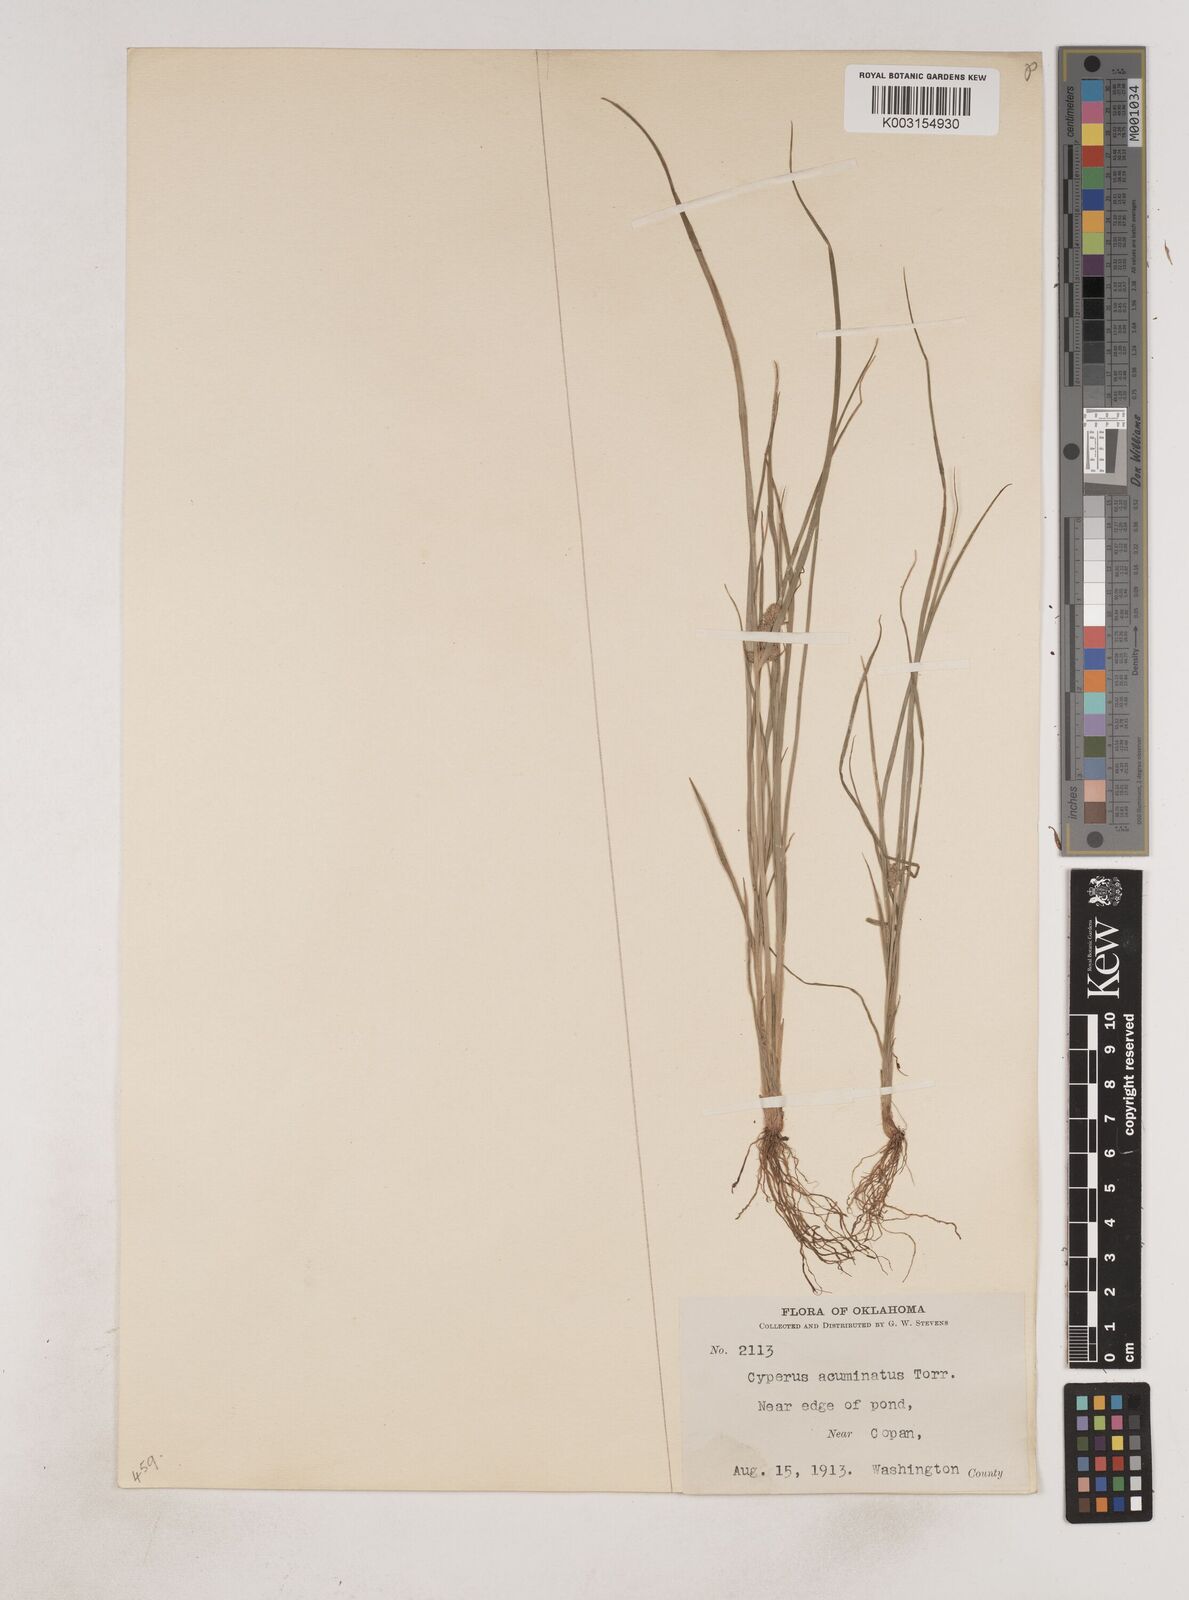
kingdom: Plantae
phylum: Tracheophyta
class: Liliopsida
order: Poales
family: Cyperaceae
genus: Cyperus
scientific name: Cyperus acuminatus
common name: Short-pointed cyperus
